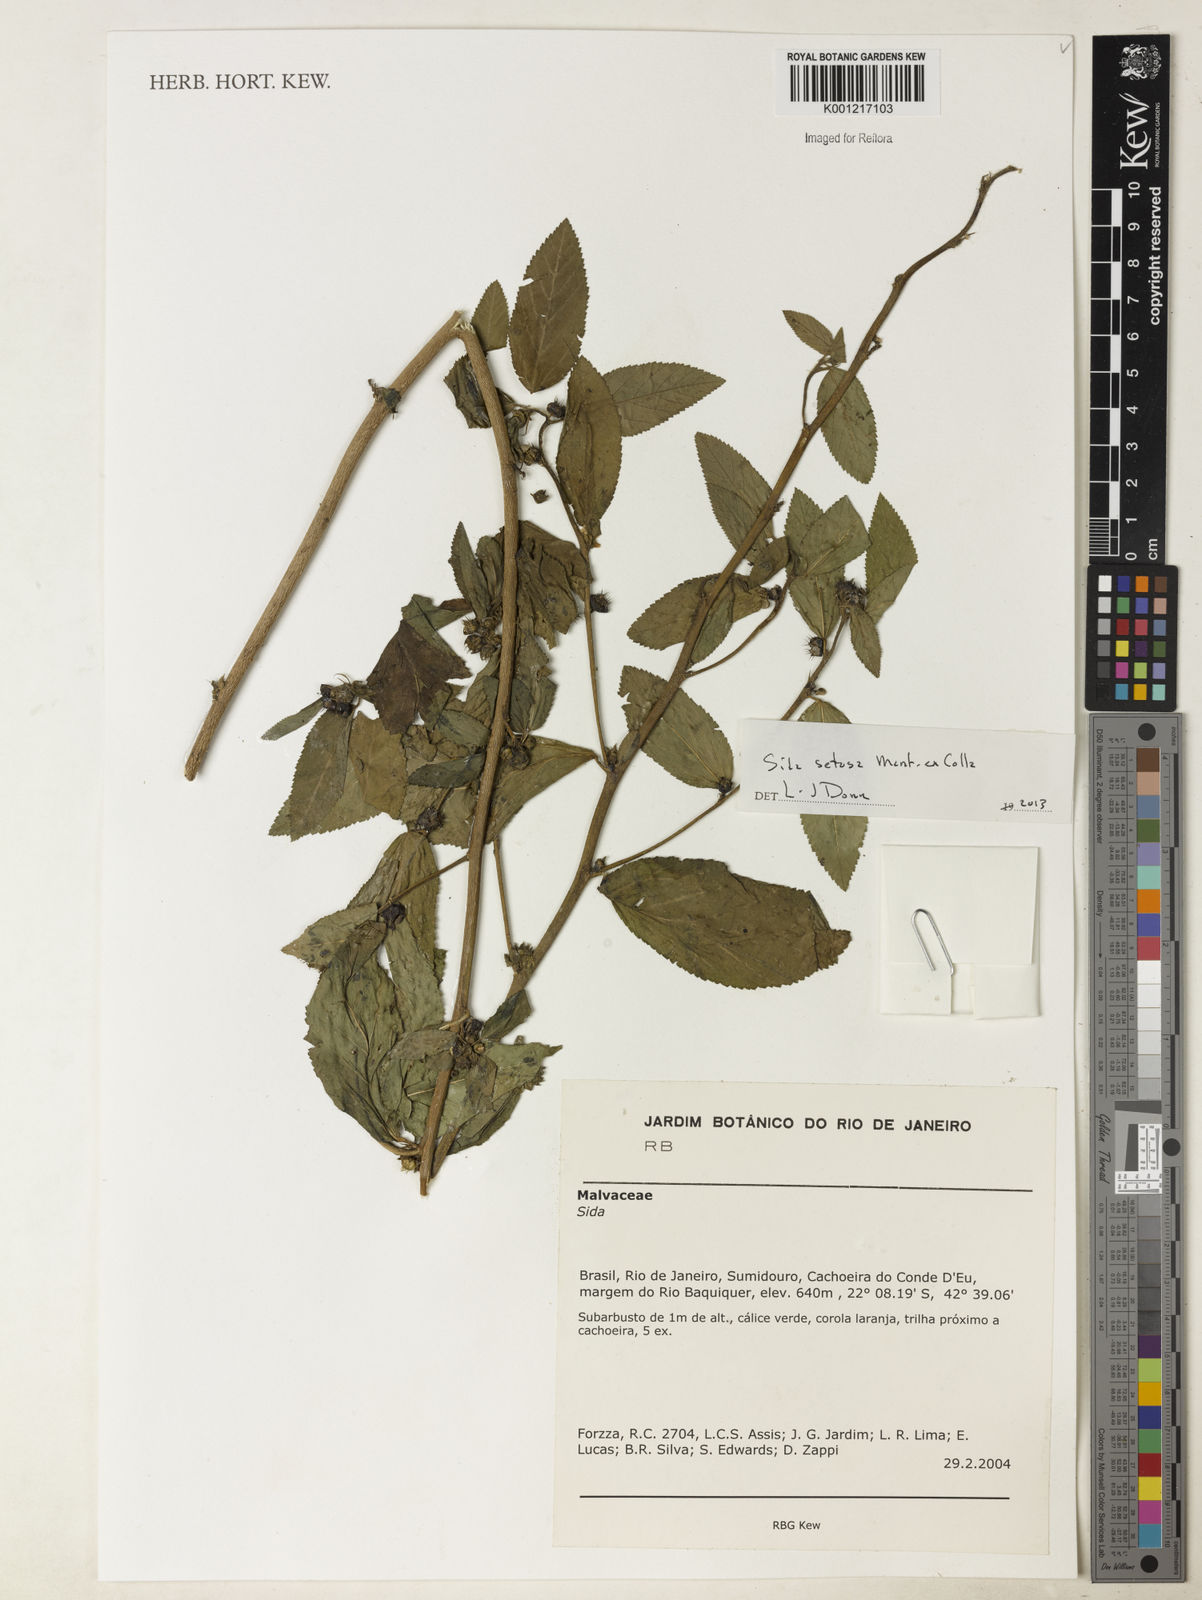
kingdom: Plantae
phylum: Tracheophyta
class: Magnoliopsida
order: Malvales
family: Malvaceae
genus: Sida
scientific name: Sida
